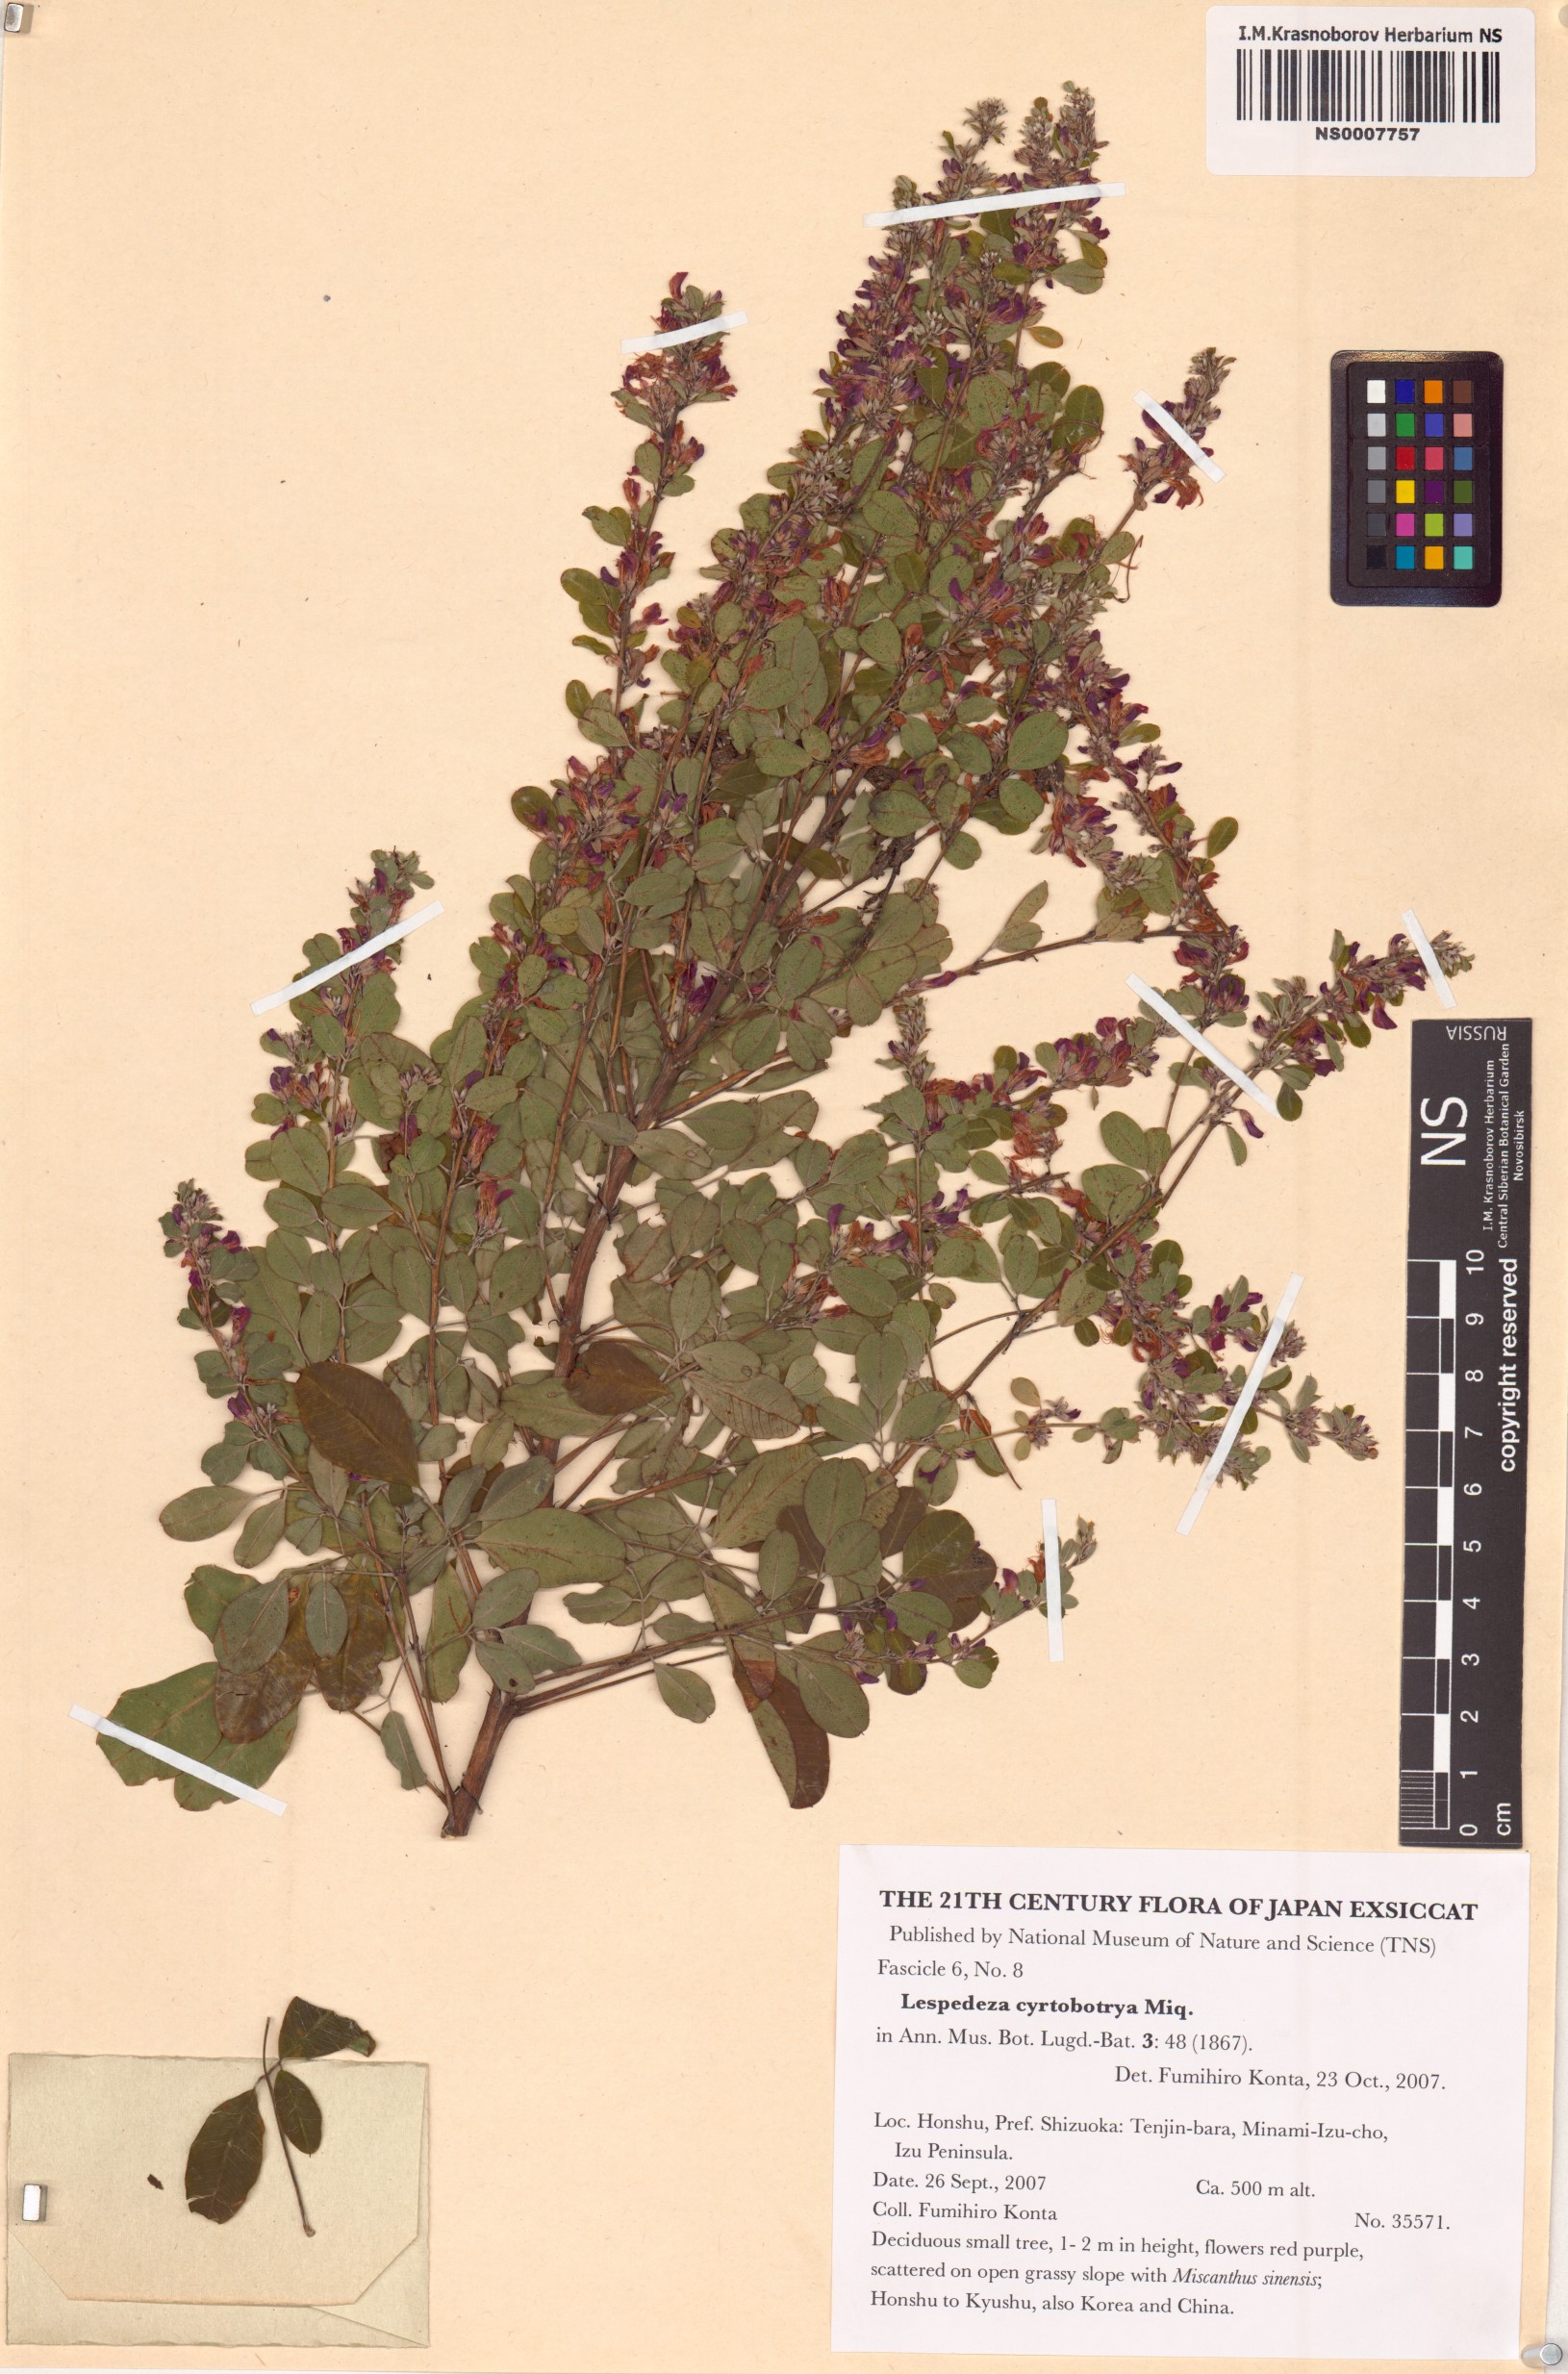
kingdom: Plantae
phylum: Tracheophyta
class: Magnoliopsida
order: Fabales
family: Fabaceae
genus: Lespedeza
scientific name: Lespedeza cyrtobotrya
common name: Leafy lespedeza
